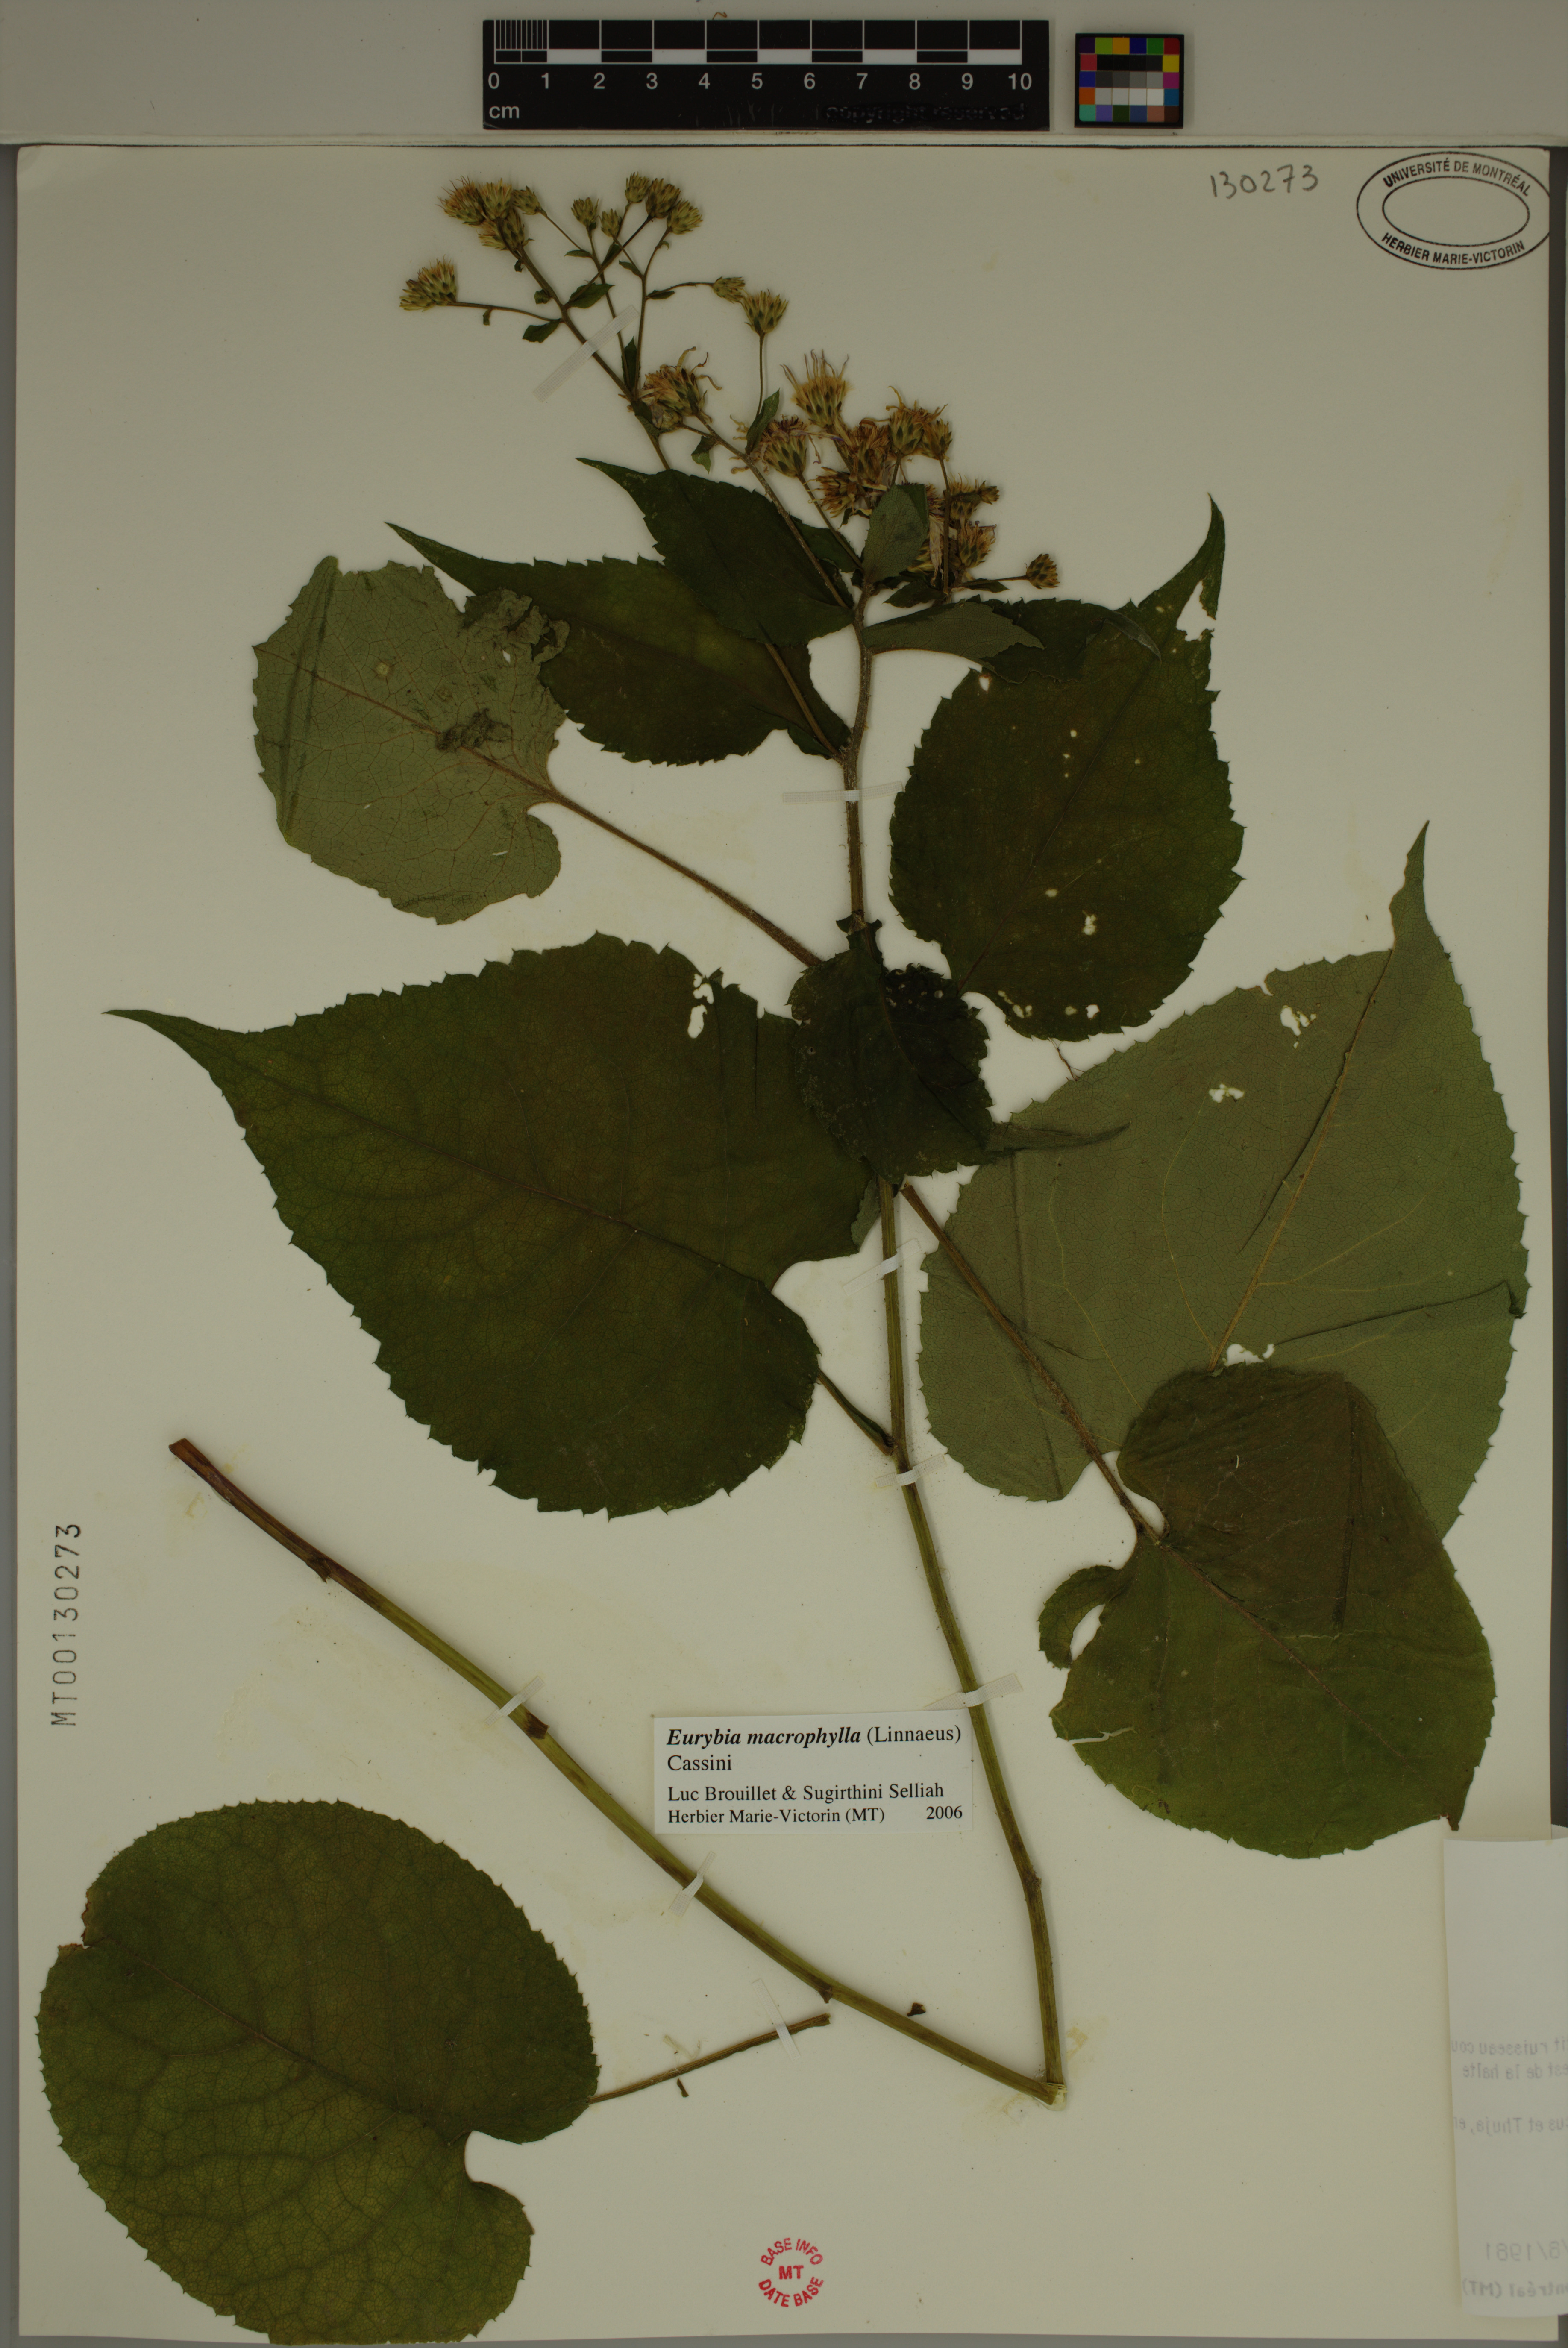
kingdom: Plantae
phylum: Tracheophyta
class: Magnoliopsida
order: Asterales
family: Asteraceae
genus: Eurybia
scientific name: Eurybia macrophylla
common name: Big-leaved aster
